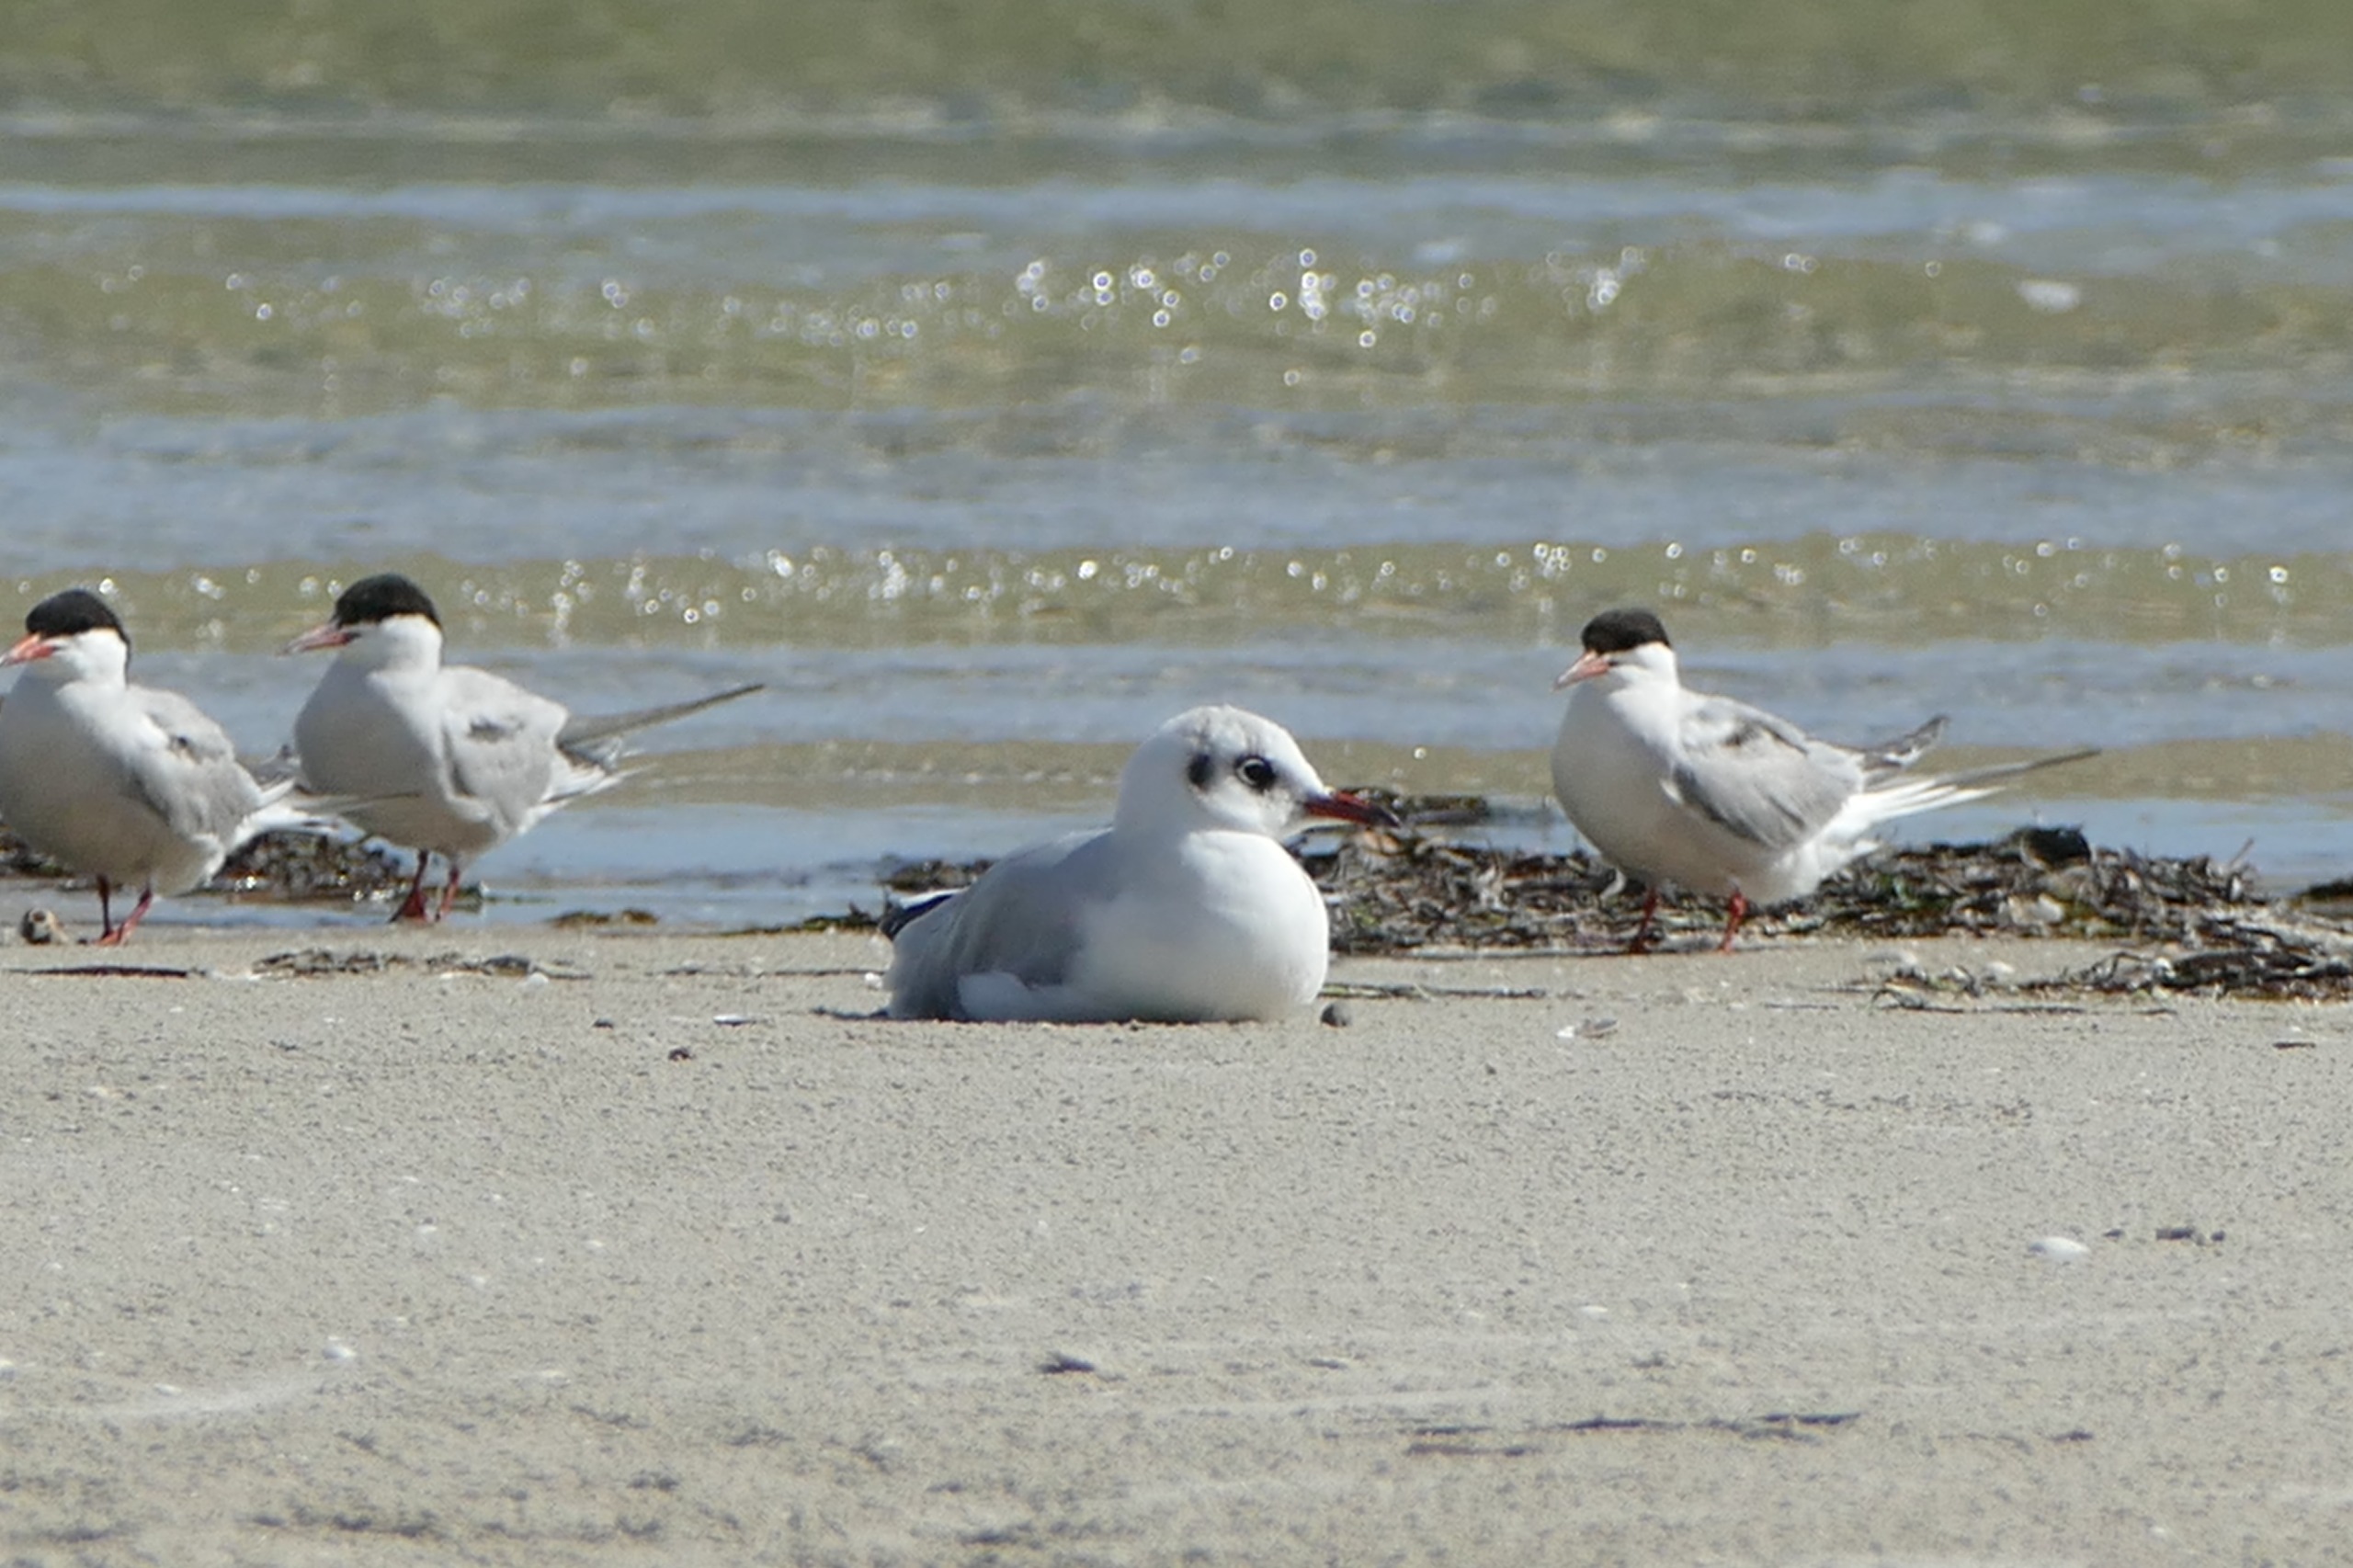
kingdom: Animalia
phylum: Chordata
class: Aves
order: Charadriiformes
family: Laridae
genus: Sterna
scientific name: Sterna hirundo
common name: Fjordterne
